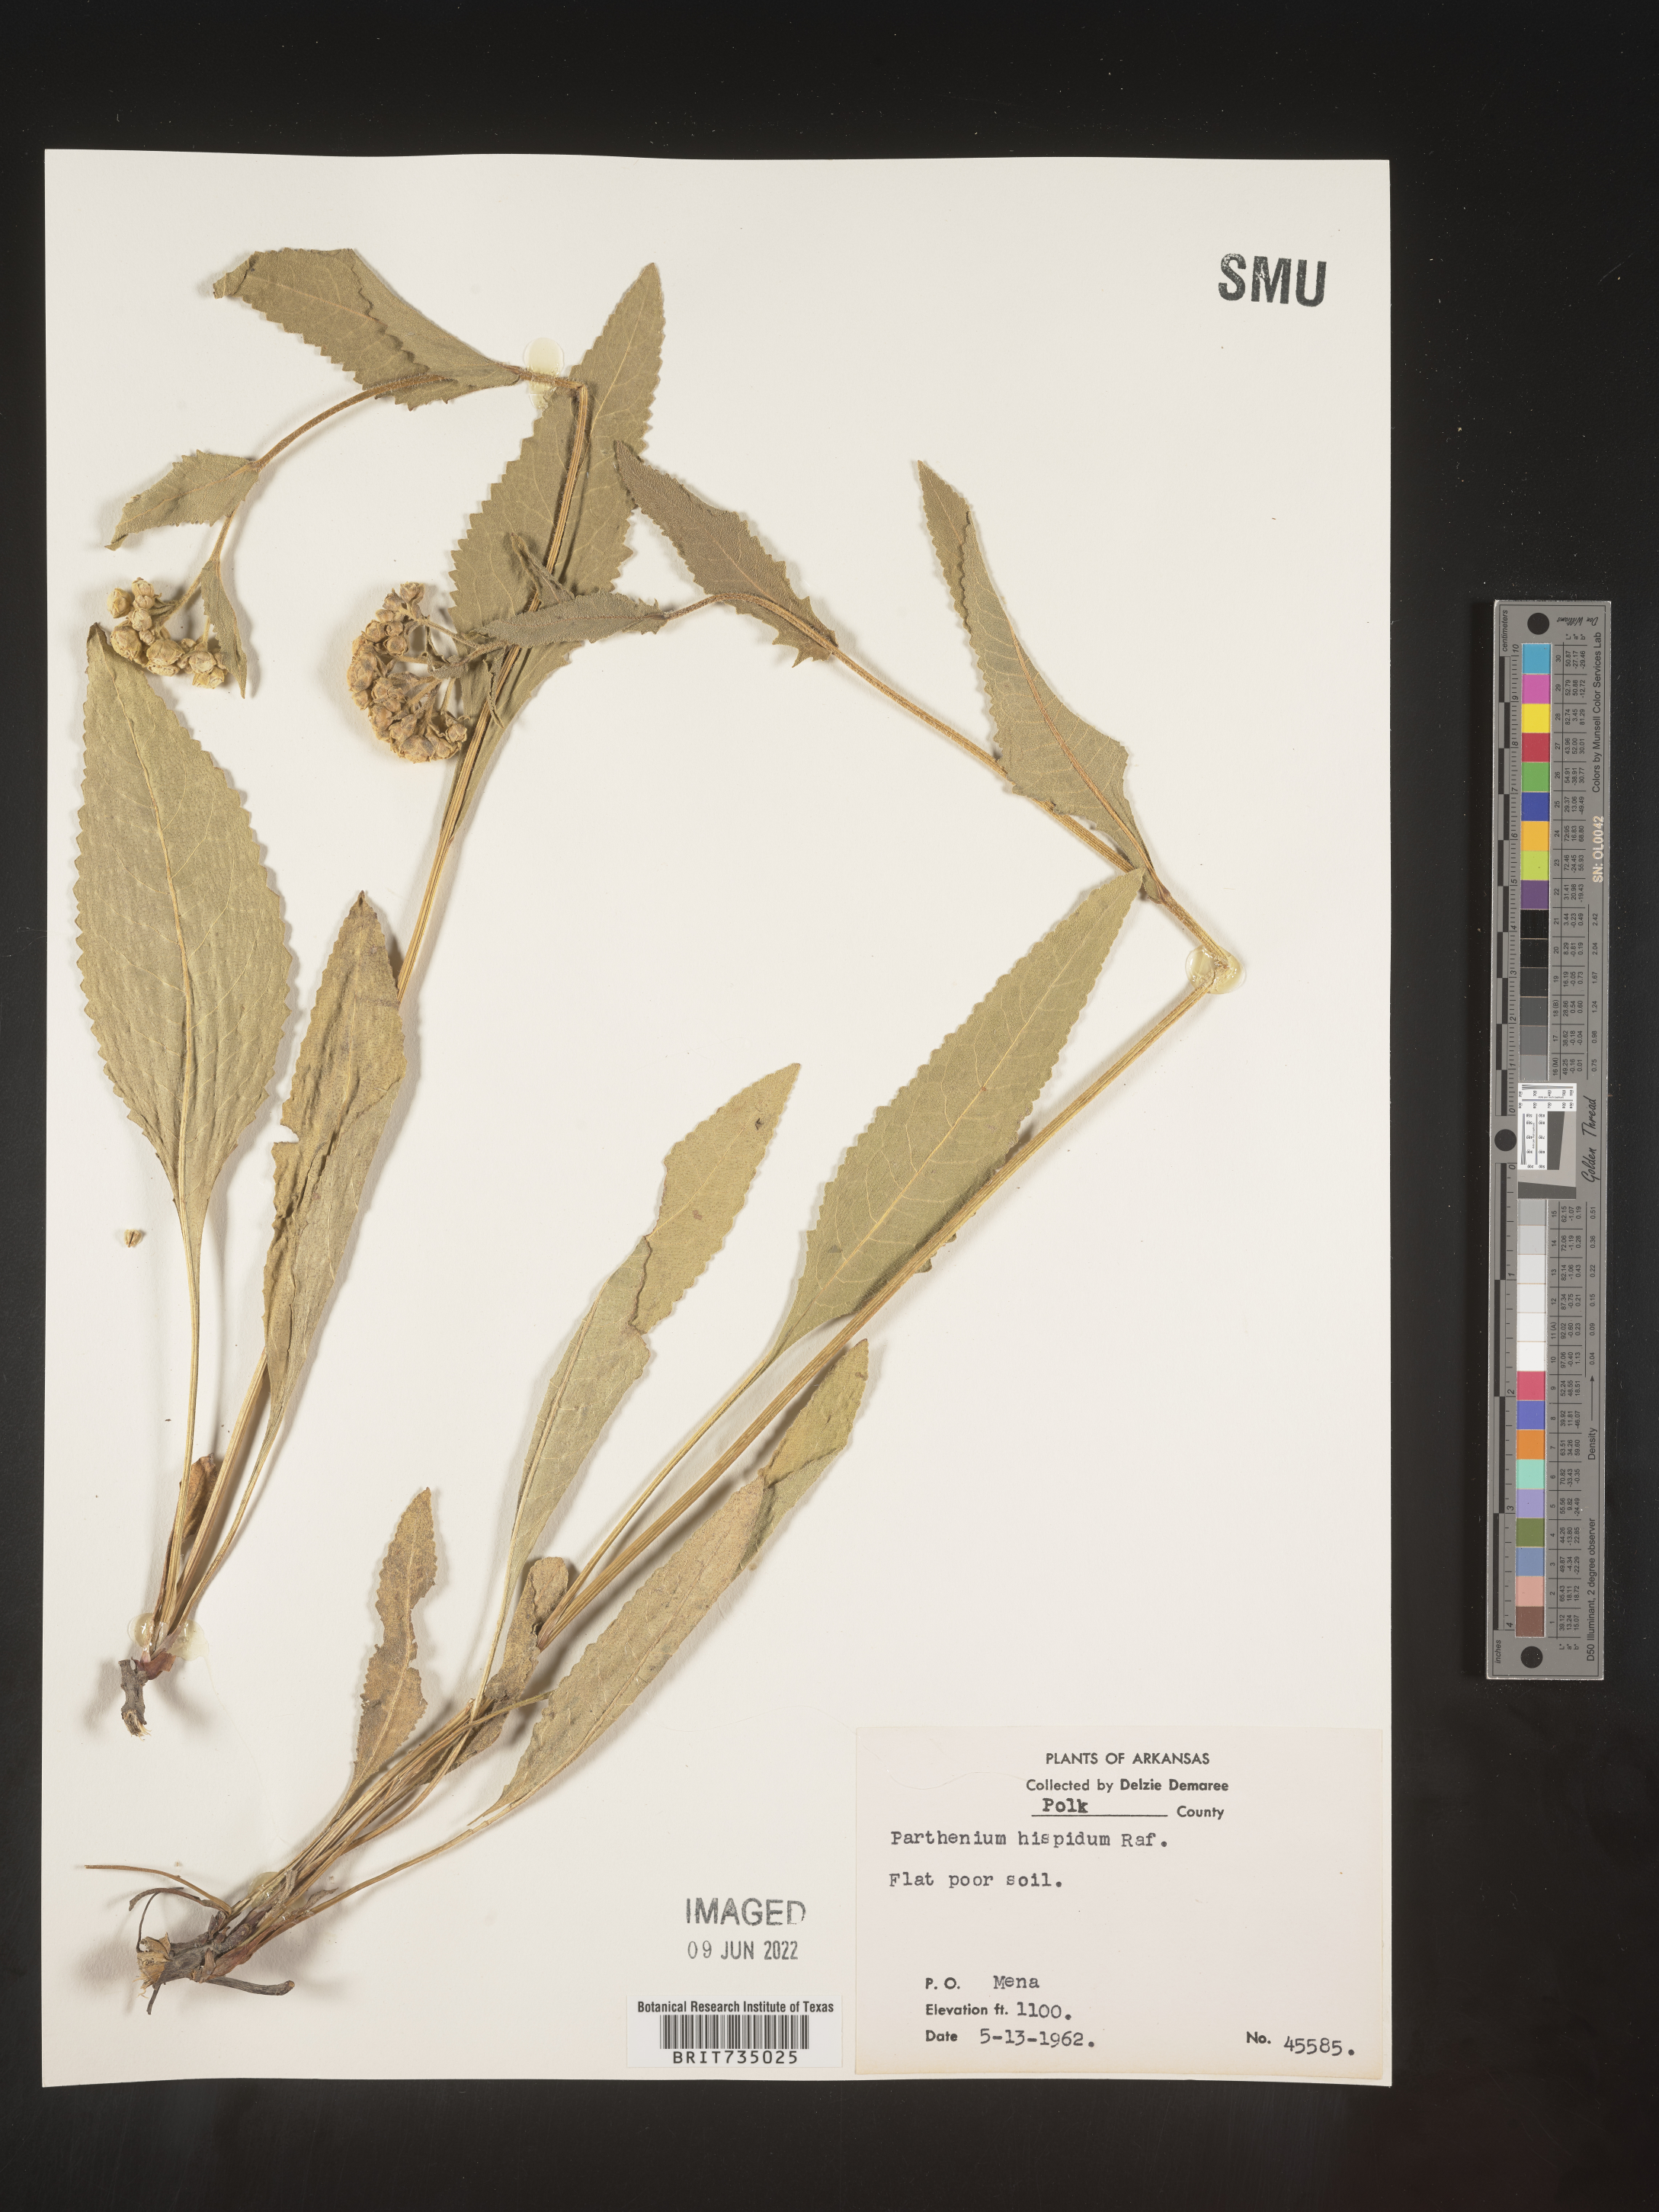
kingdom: Plantae
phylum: Tracheophyta
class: Magnoliopsida
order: Asterales
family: Asteraceae
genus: Parthenium
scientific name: Parthenium hispidum
